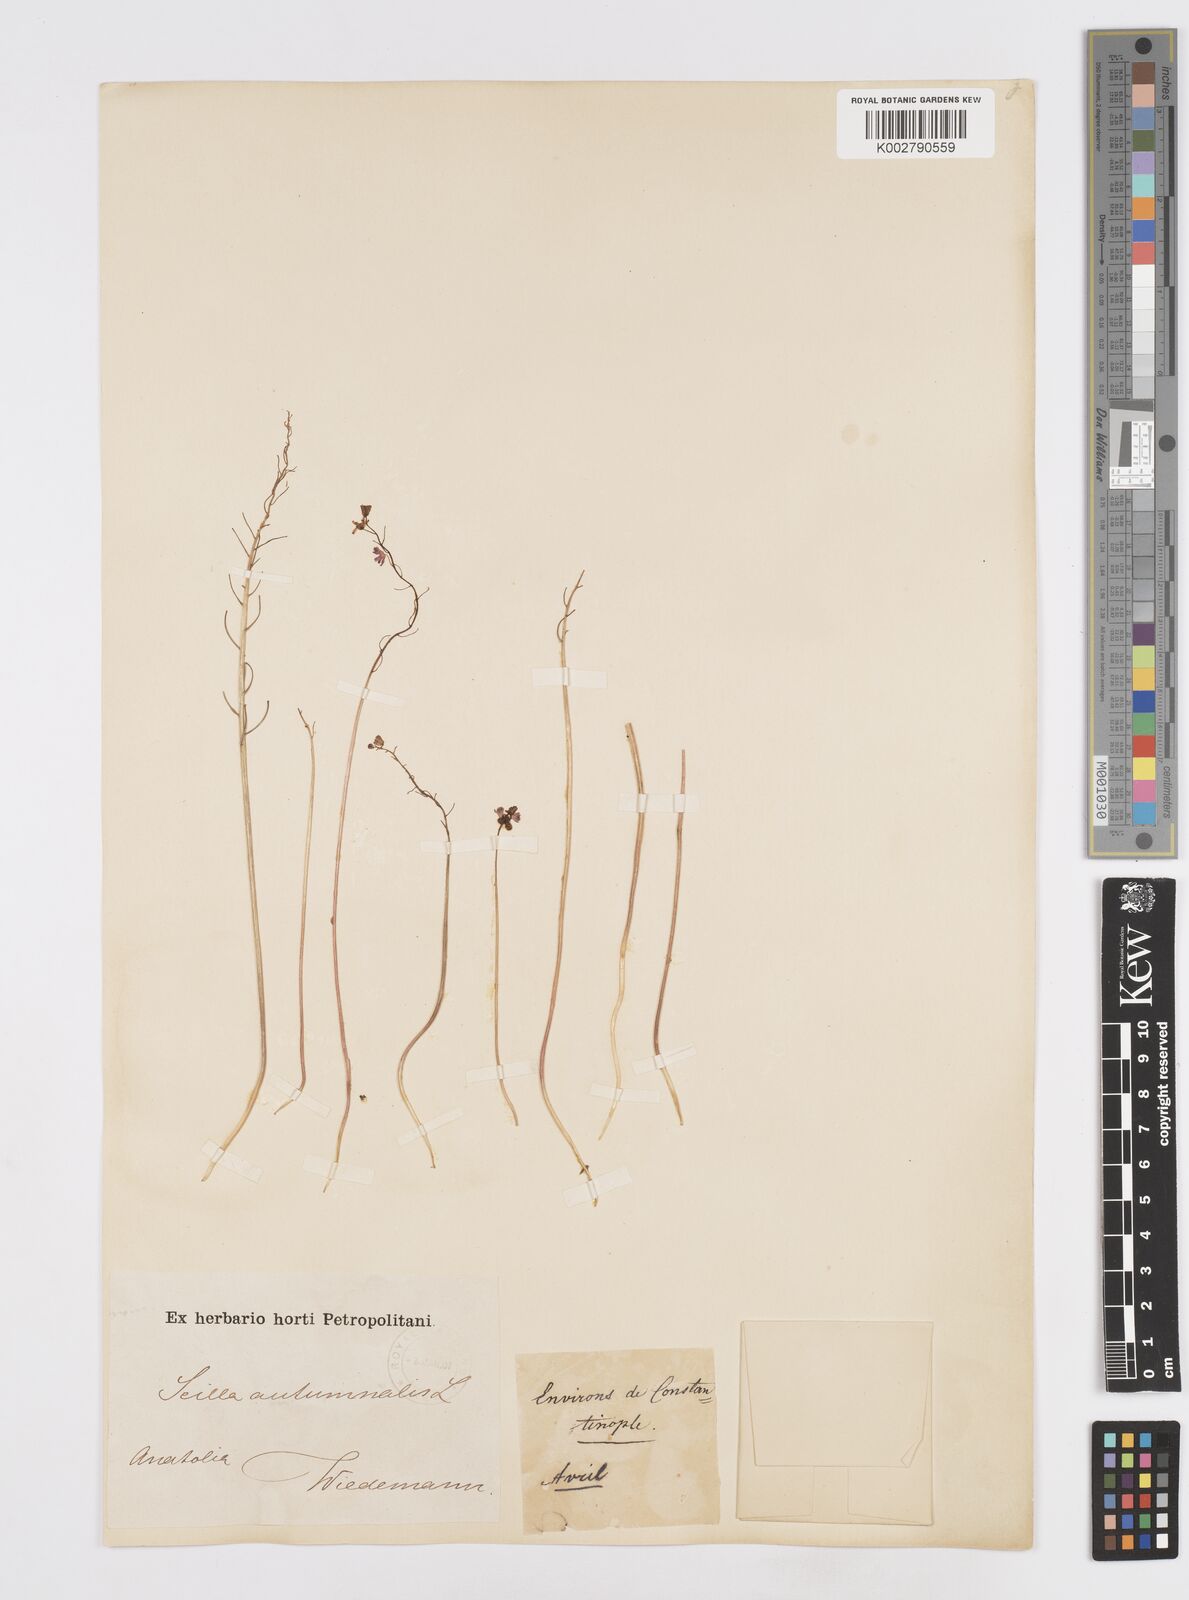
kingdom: Plantae
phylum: Tracheophyta
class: Liliopsida
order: Asparagales
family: Asparagaceae
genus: Prospero
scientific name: Prospero autumnale
